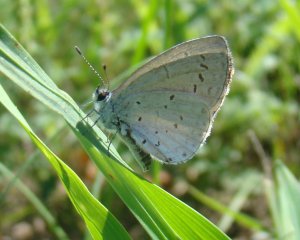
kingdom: Animalia
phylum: Arthropoda
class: Insecta
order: Lepidoptera
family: Lycaenidae
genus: Cyaniris
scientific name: Cyaniris neglecta
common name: Summer Azure
